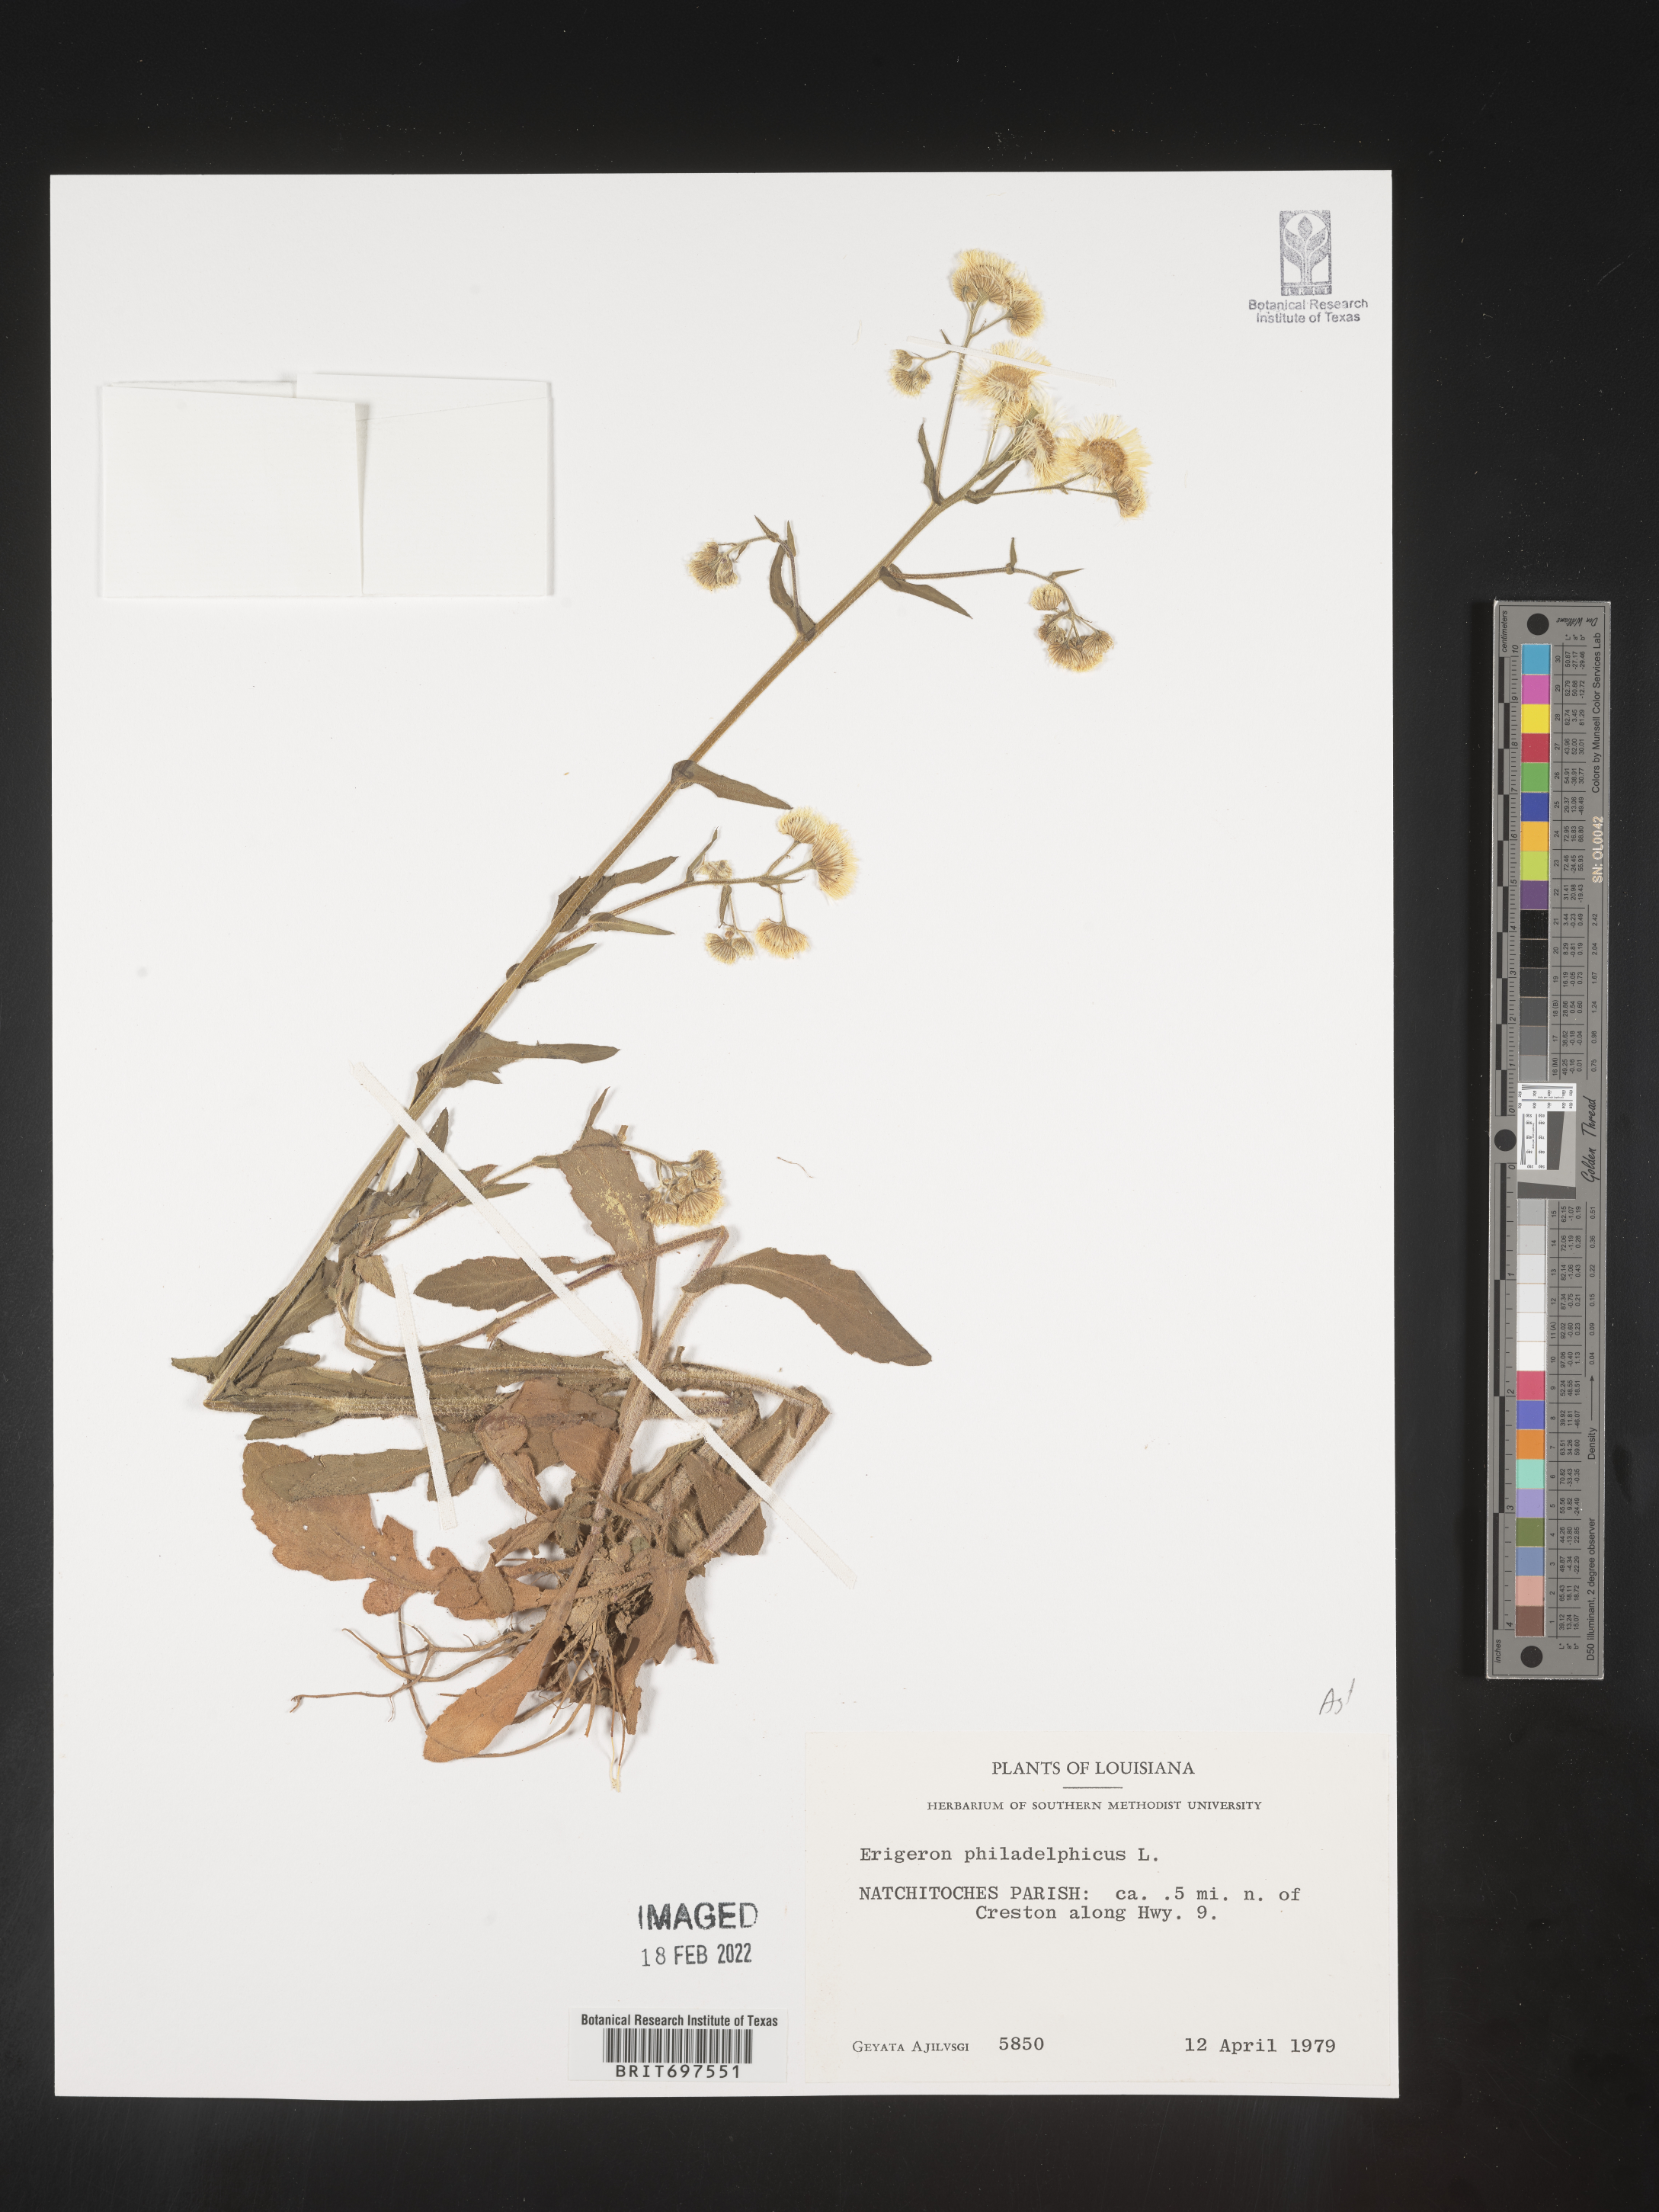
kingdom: Plantae
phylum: Tracheophyta
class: Magnoliopsida
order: Asterales
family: Asteraceae
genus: Erigeron
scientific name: Erigeron philadelphicus
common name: Robin's-plantain
